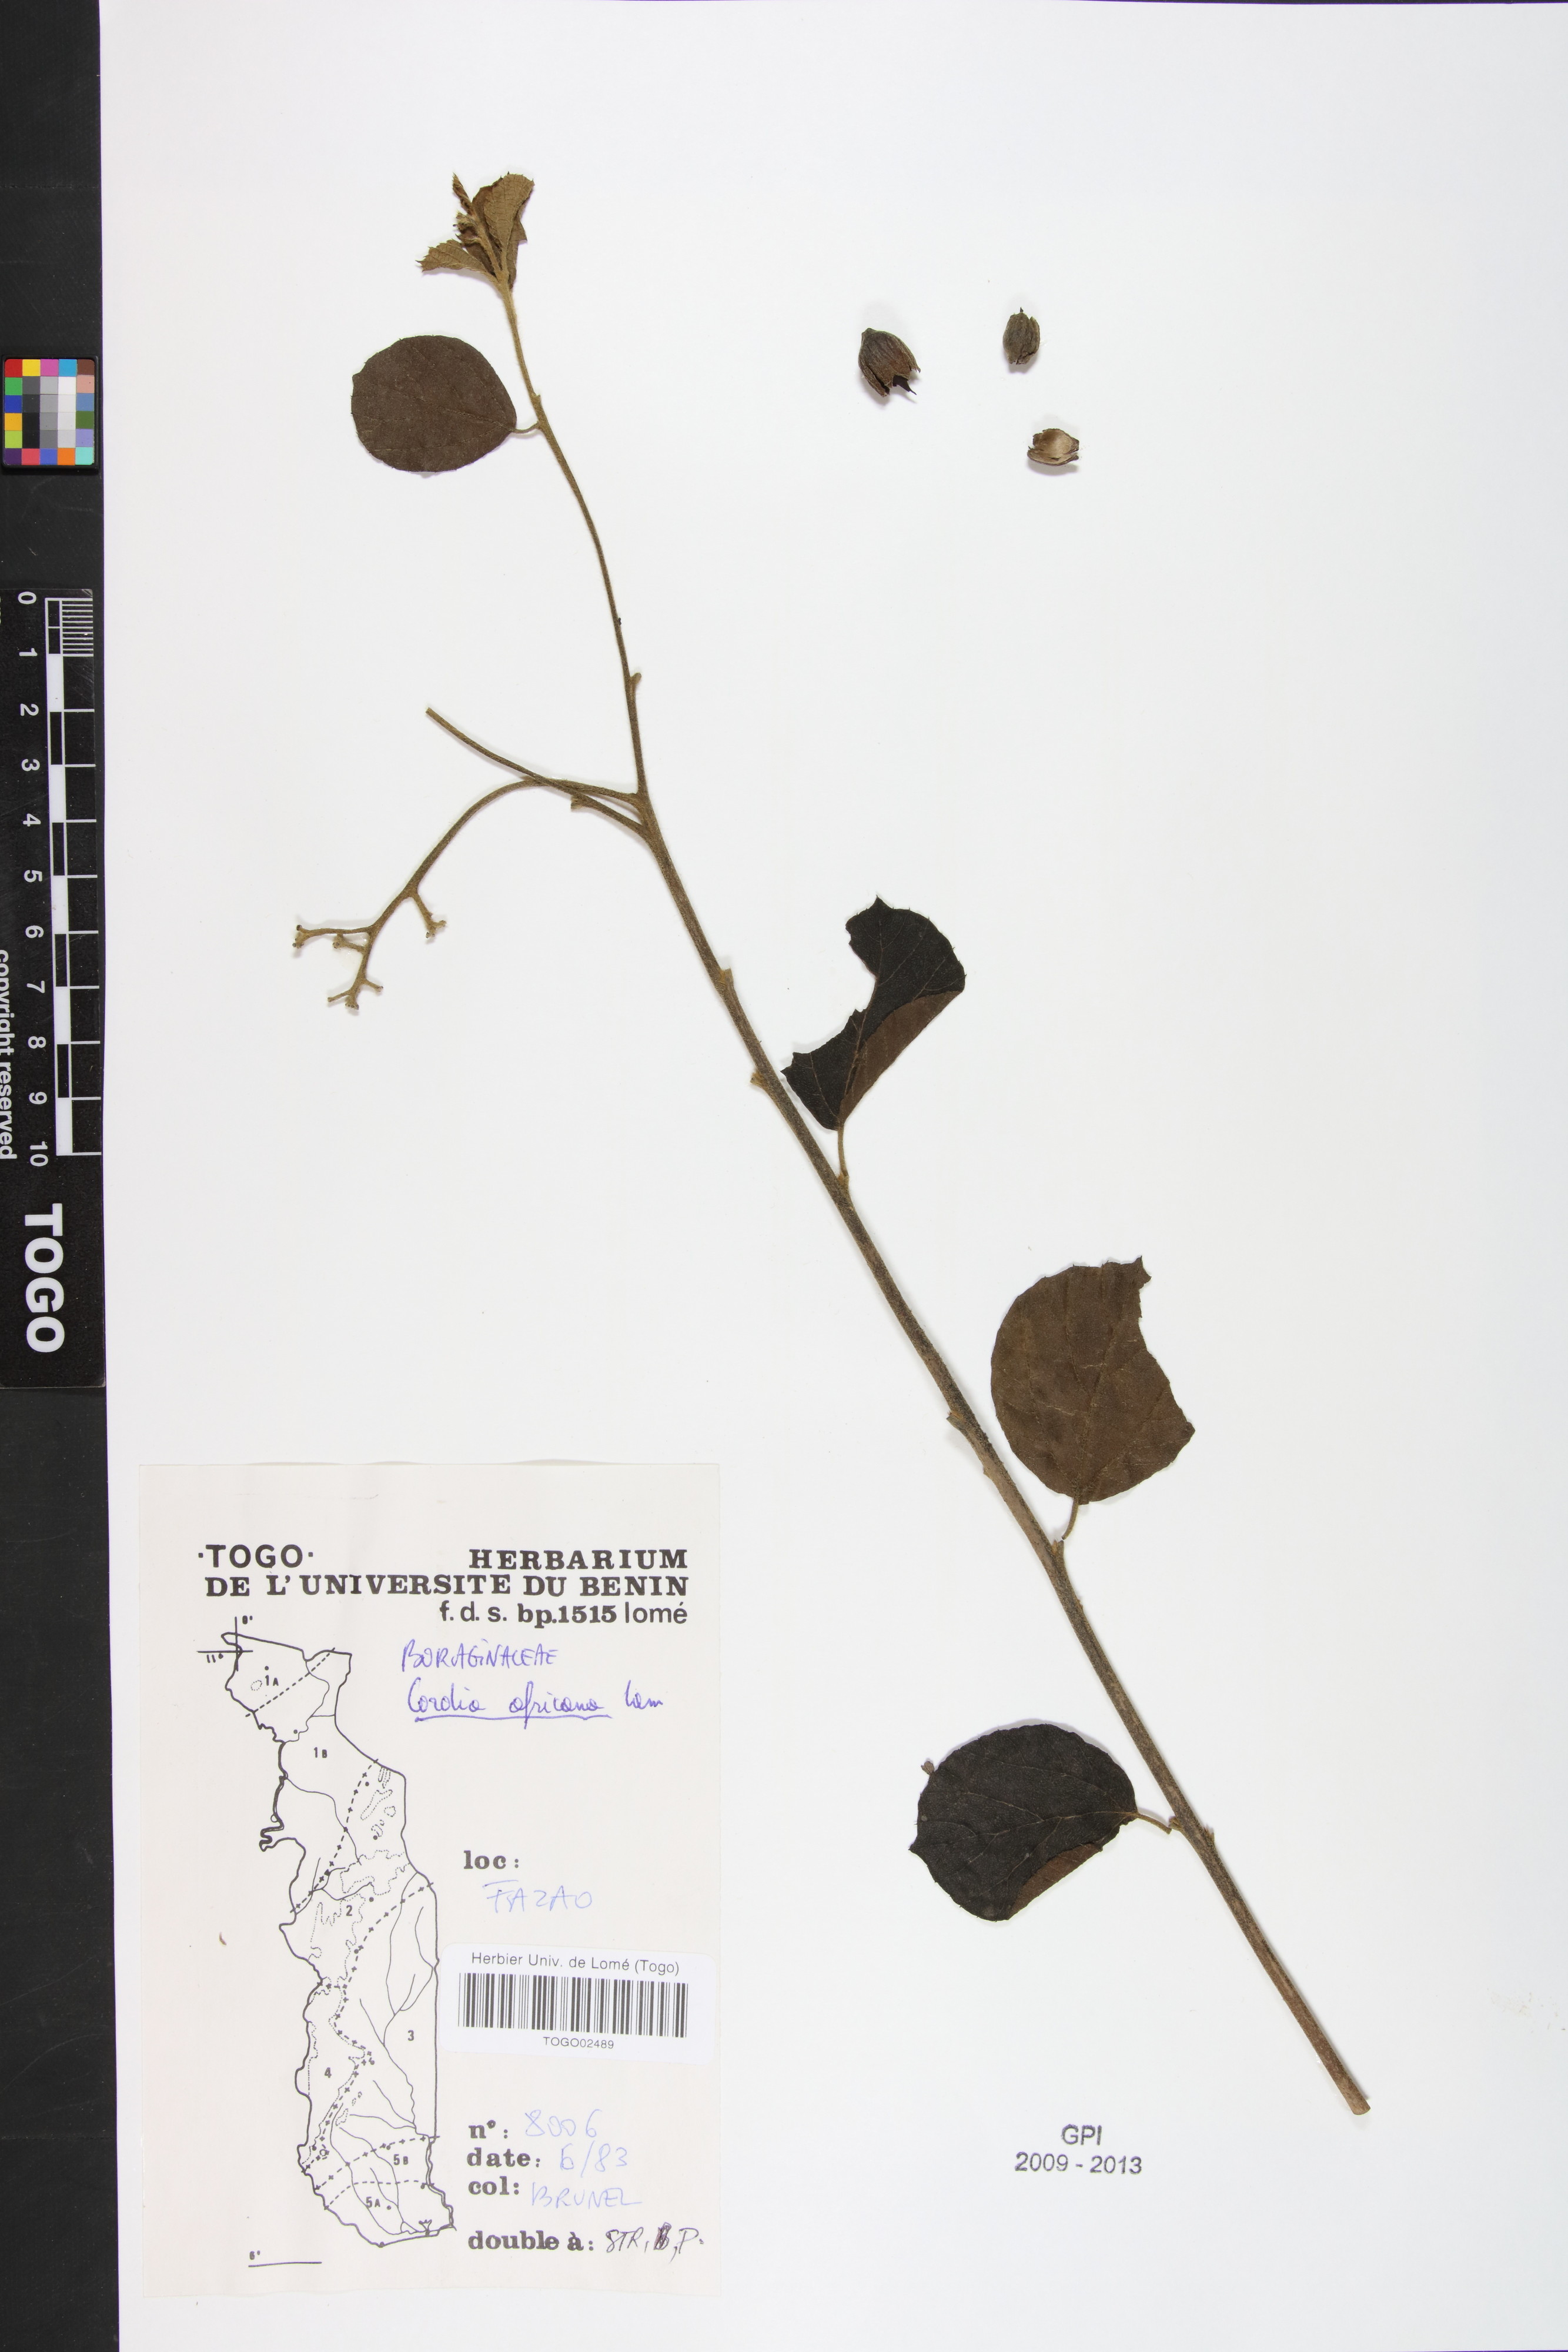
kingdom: Plantae
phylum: Tracheophyta
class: Magnoliopsida
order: Boraginales
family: Cordiaceae
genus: Cordia
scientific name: Cordia africana
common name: Large-leaved cordia
